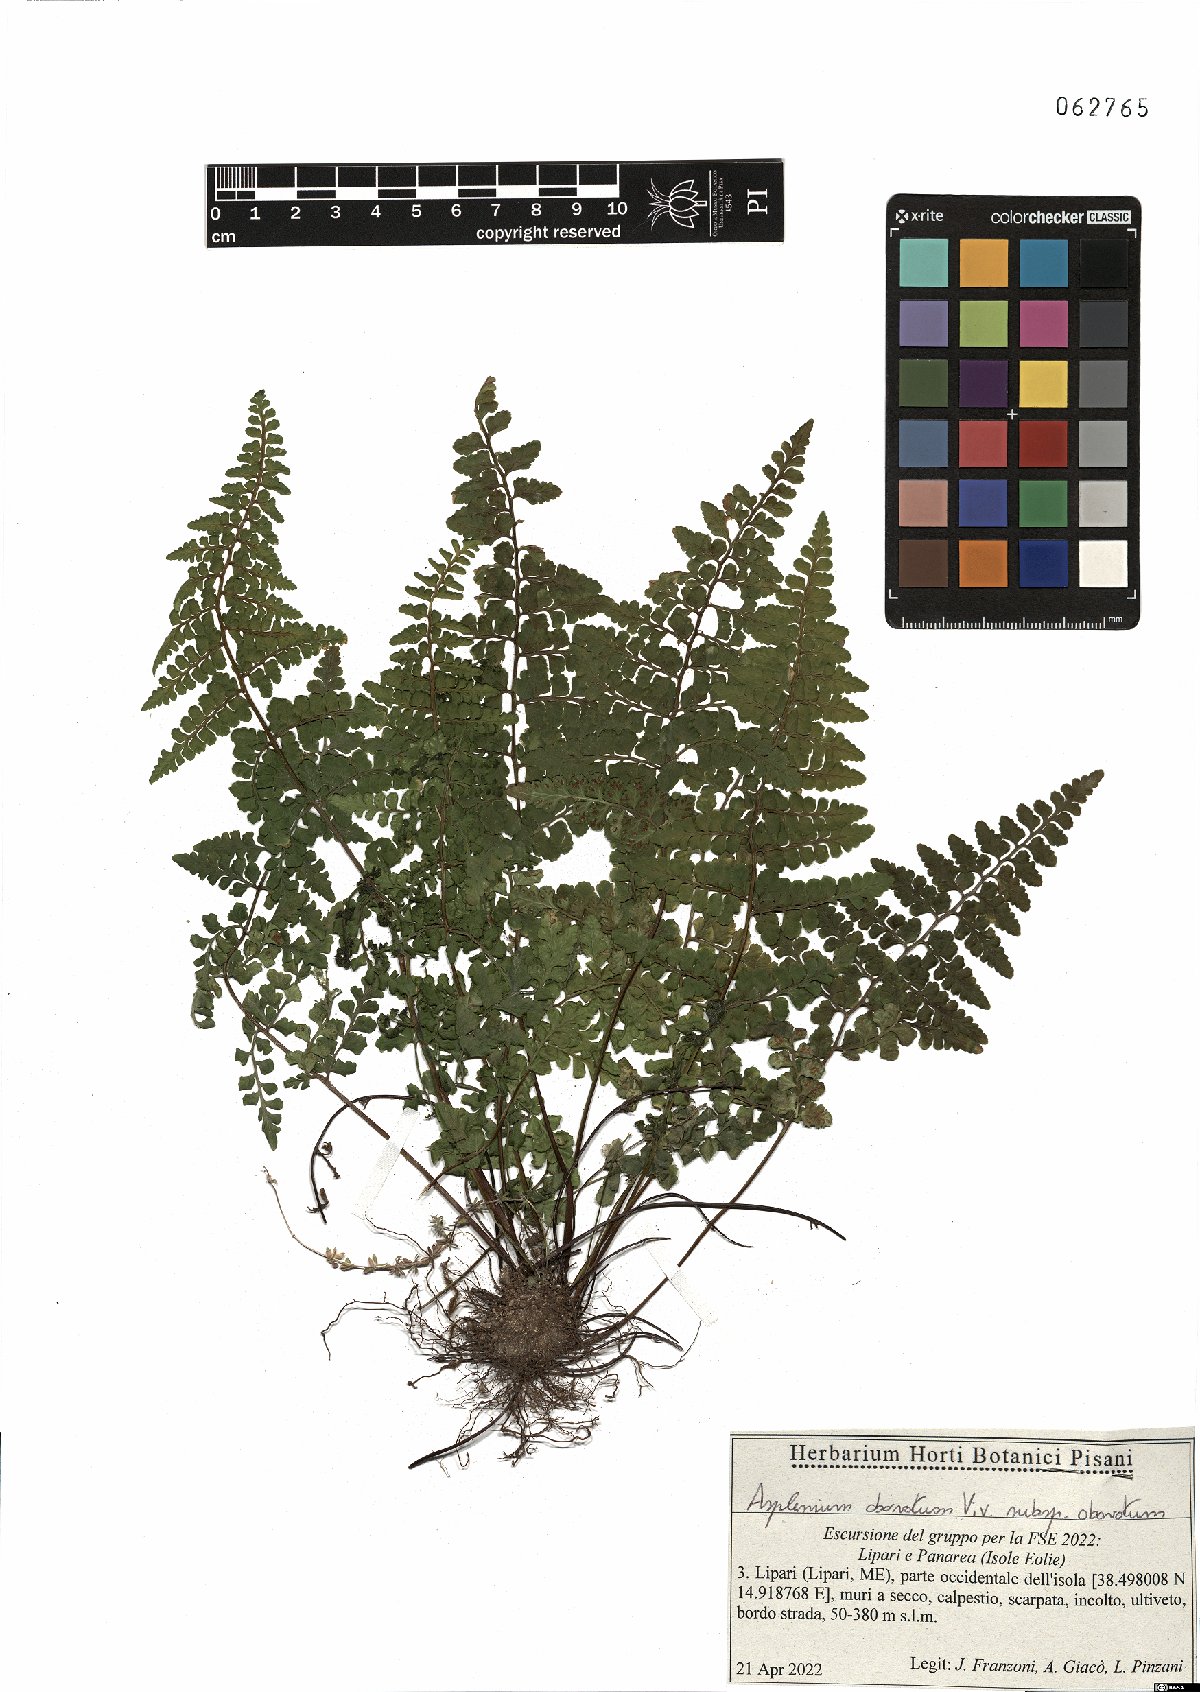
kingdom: Plantae
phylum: Tracheophyta
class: Polypodiopsida
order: Polypodiales
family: Aspleniaceae
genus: Asplenium
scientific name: Asplenium obovatum
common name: Lanceolate spleenwort
